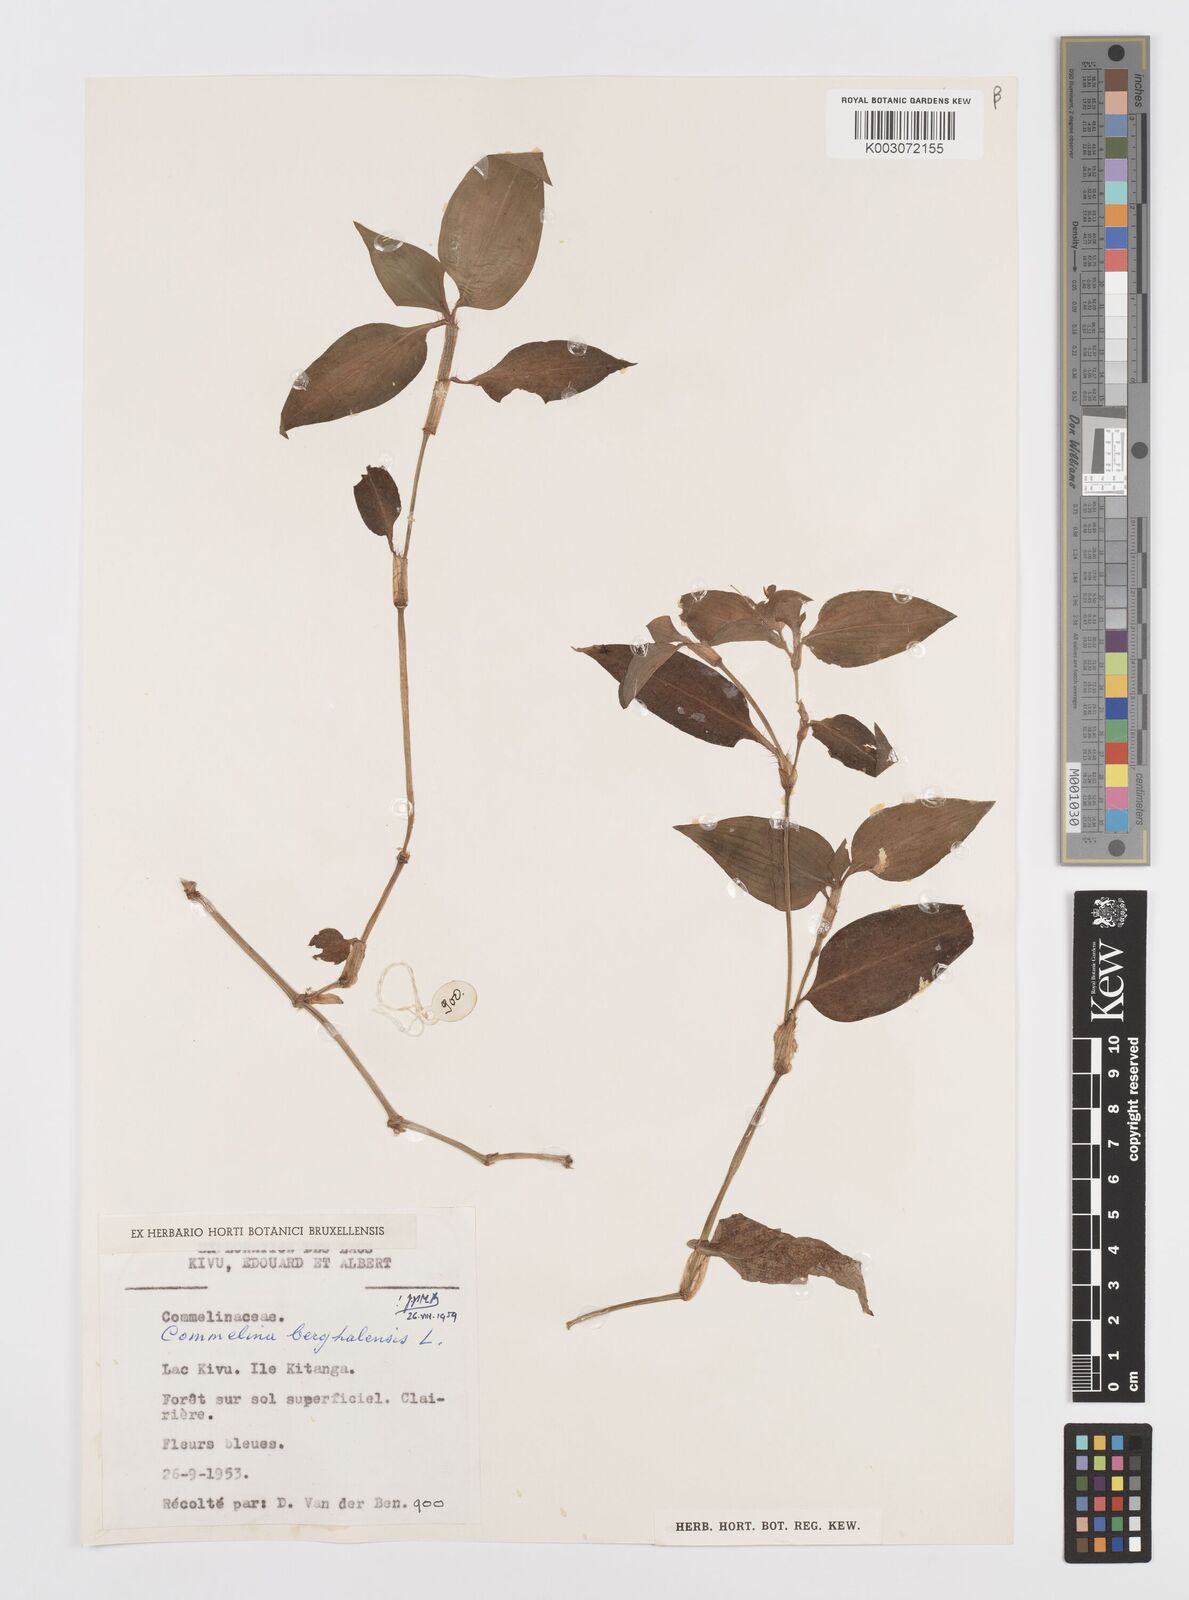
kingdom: Plantae
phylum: Tracheophyta
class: Liliopsida
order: Commelinales
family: Commelinaceae
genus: Commelina
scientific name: Commelina benghalensis
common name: Jio
